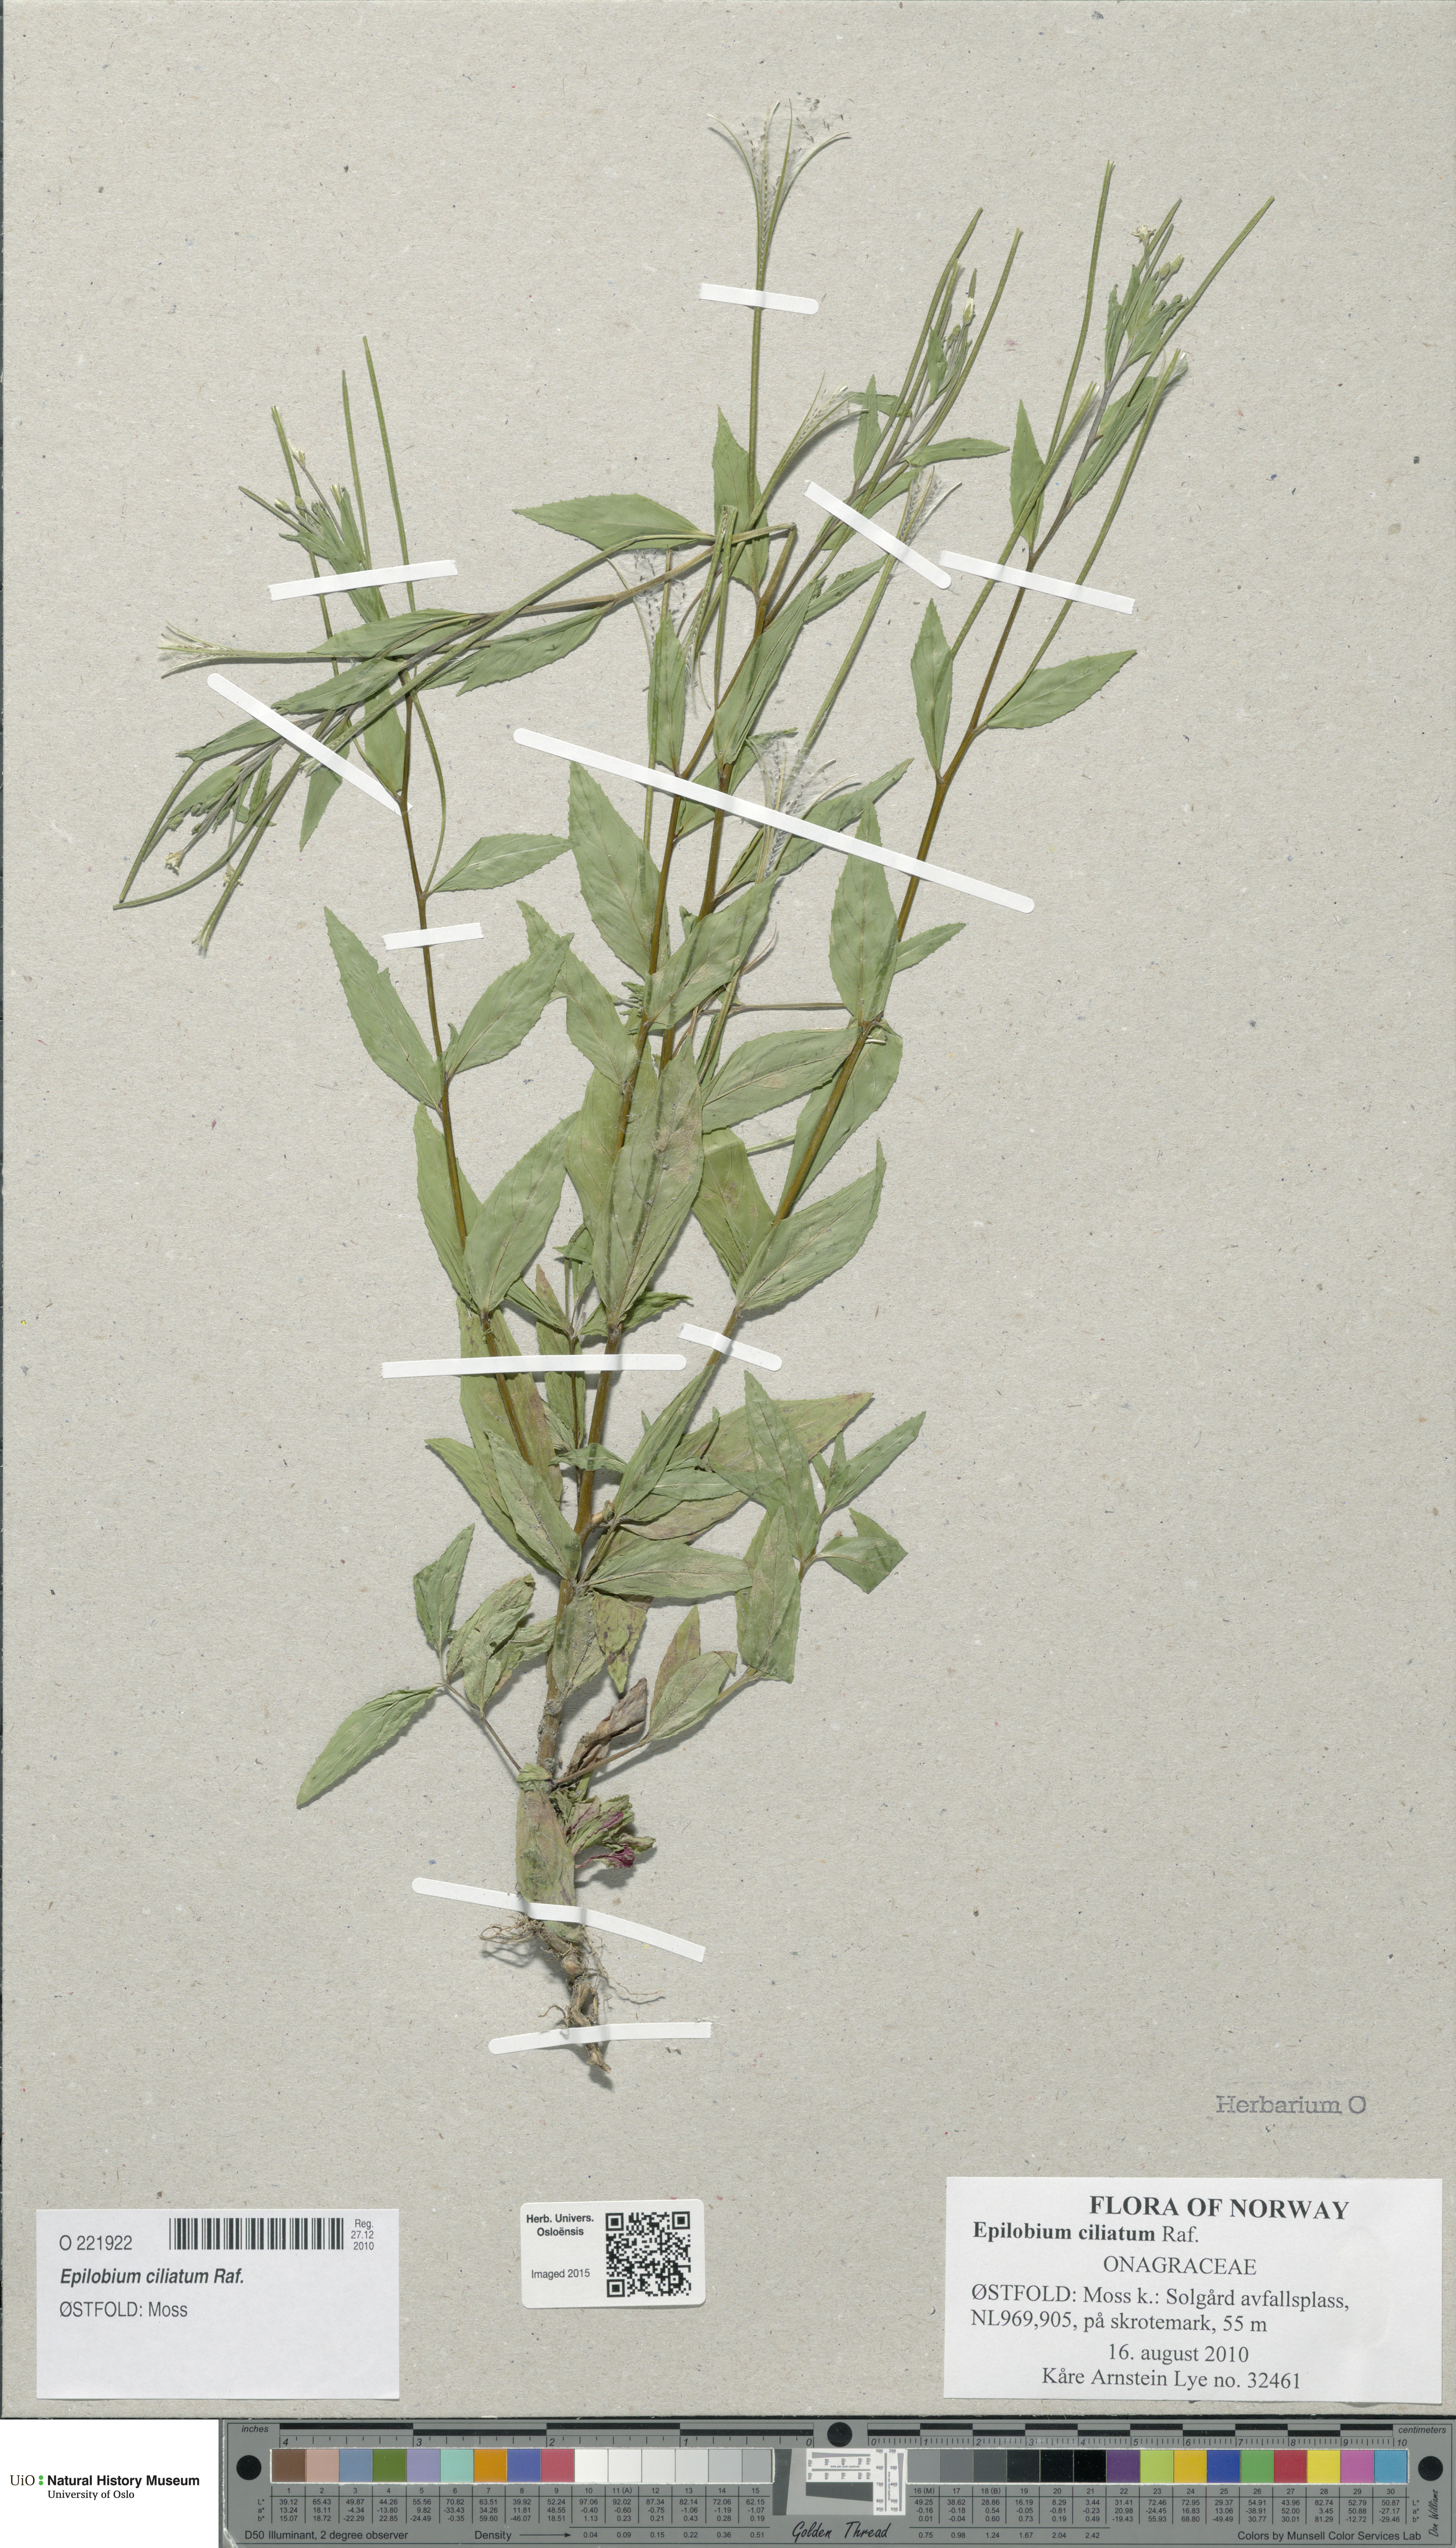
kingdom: Plantae
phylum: Tracheophyta
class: Magnoliopsida
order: Myrtales
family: Onagraceae
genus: Epilobium
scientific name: Epilobium ciliatum
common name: American willowherb
